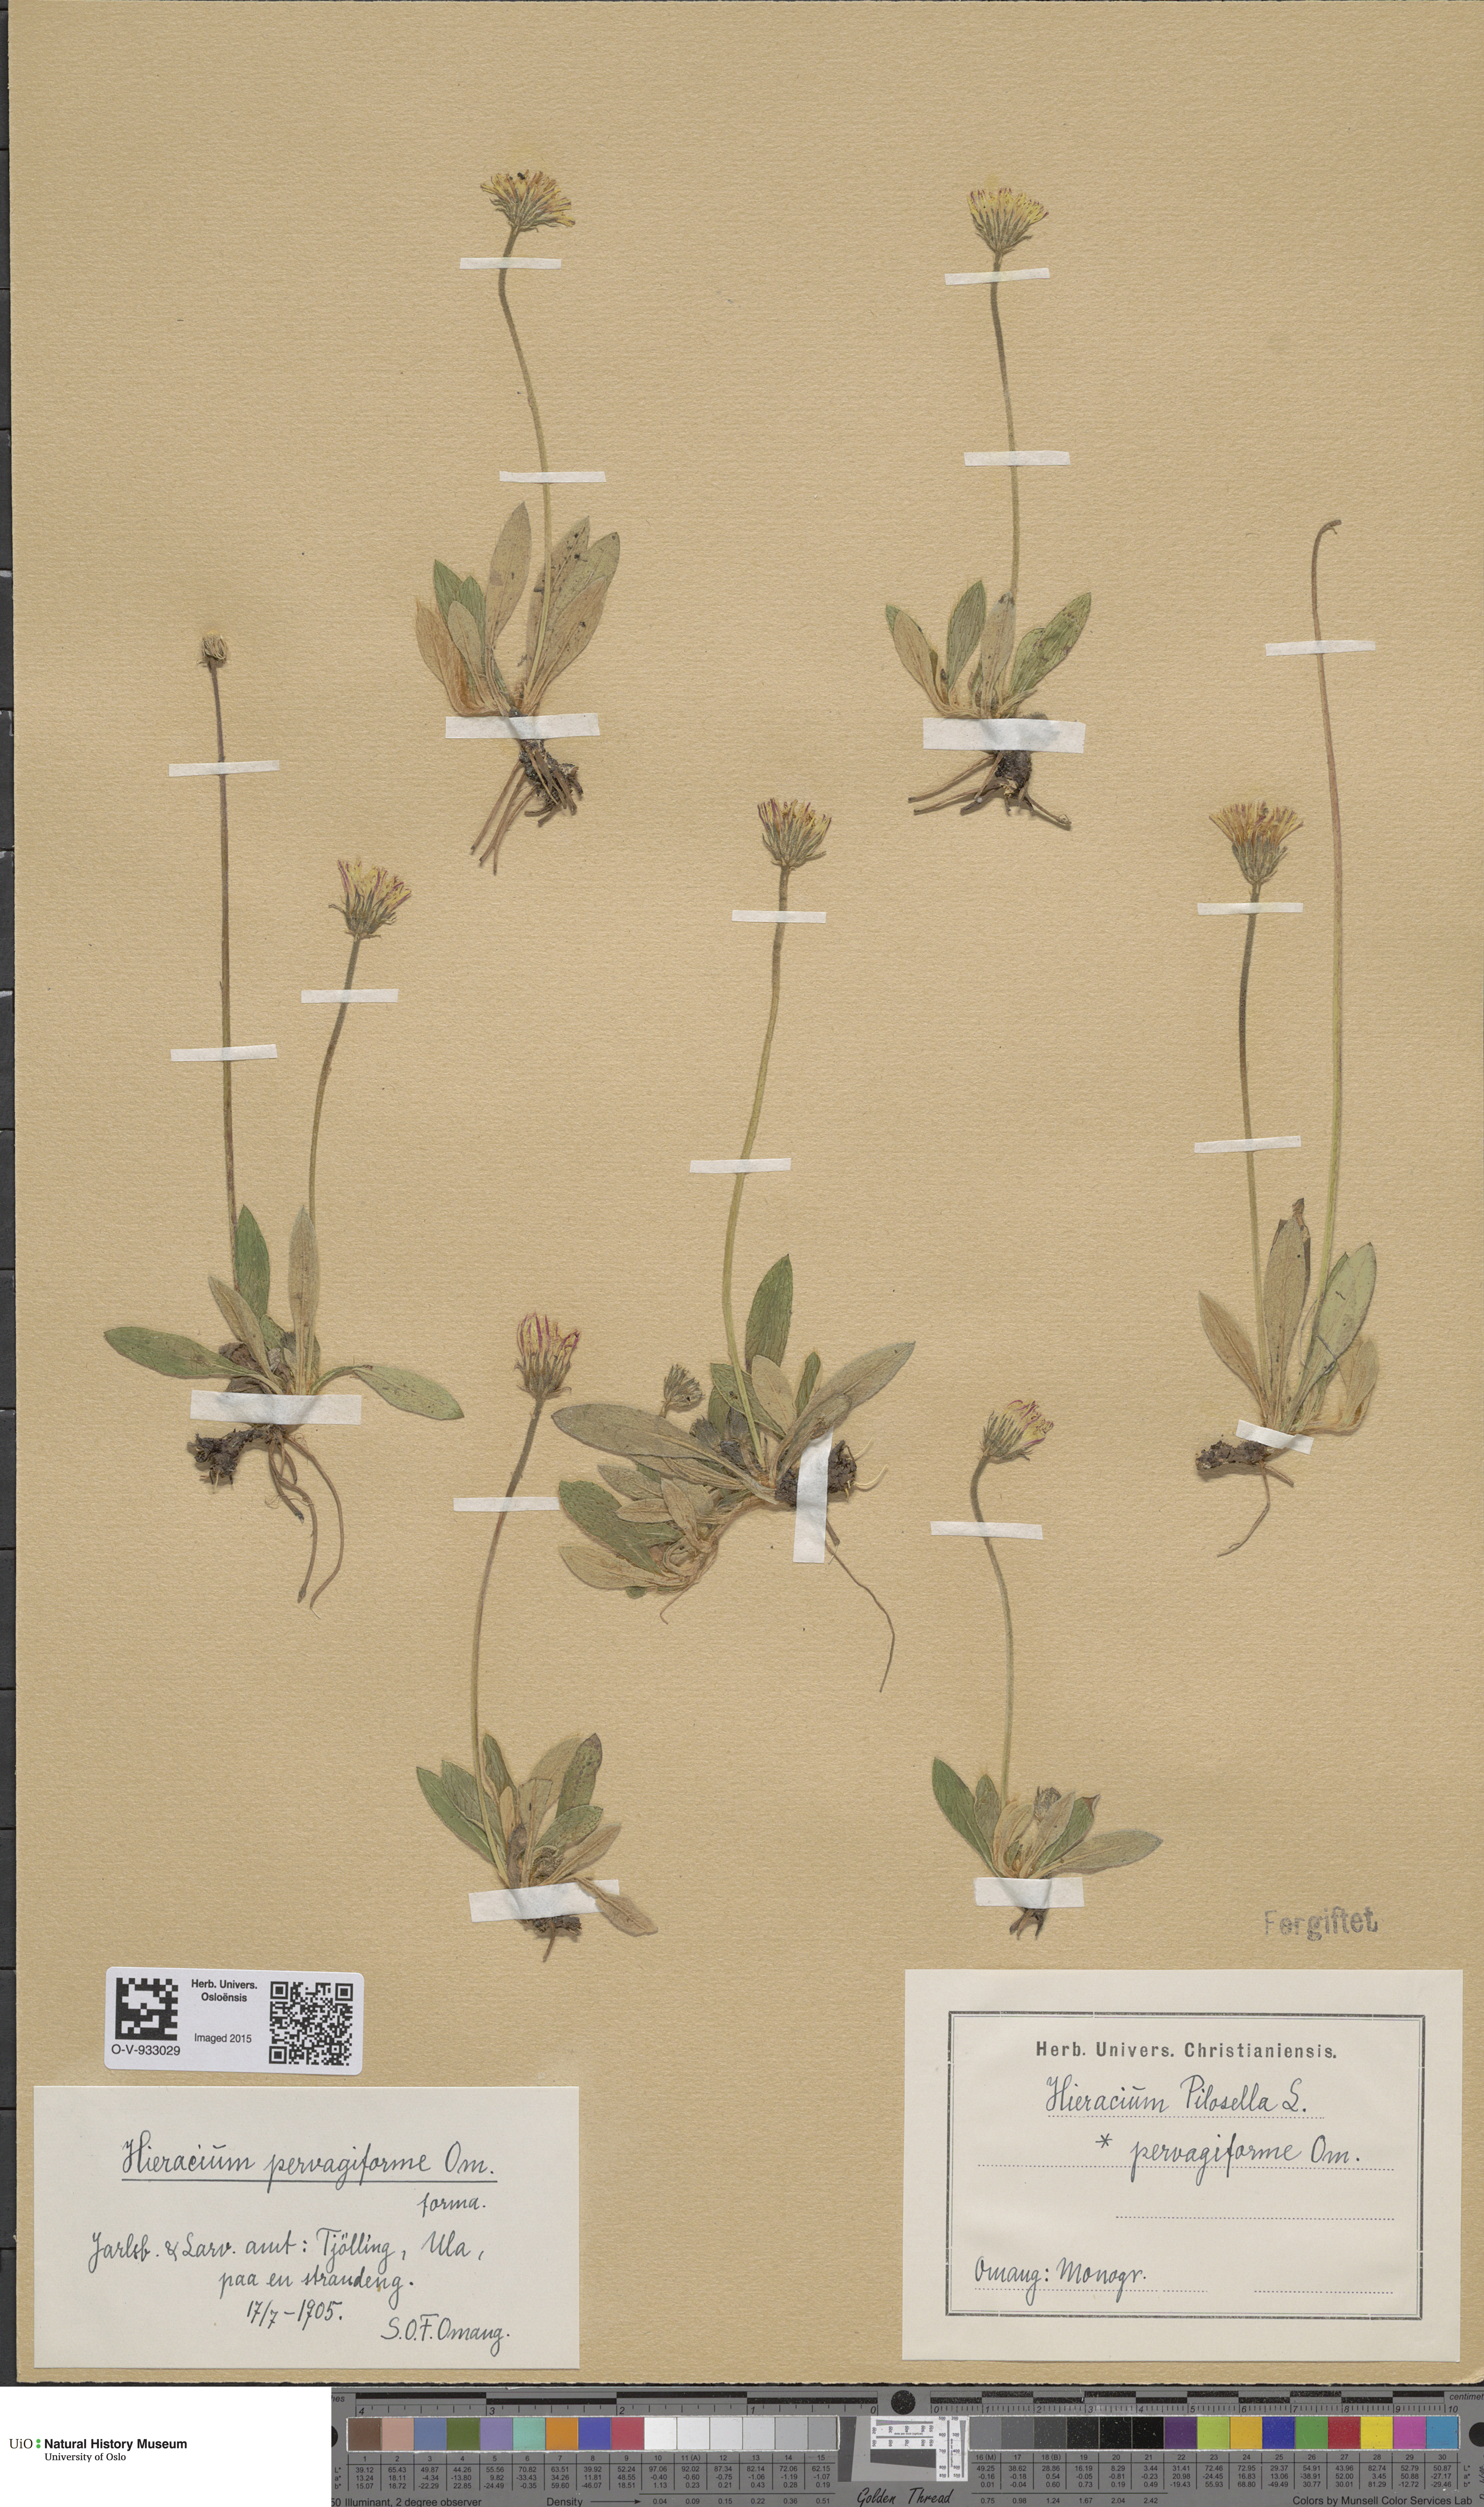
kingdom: Plantae
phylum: Tracheophyta
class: Magnoliopsida
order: Asterales
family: Asteraceae
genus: Pilosella
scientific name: Pilosella officinarum
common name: Mouse-ear hawkweed
